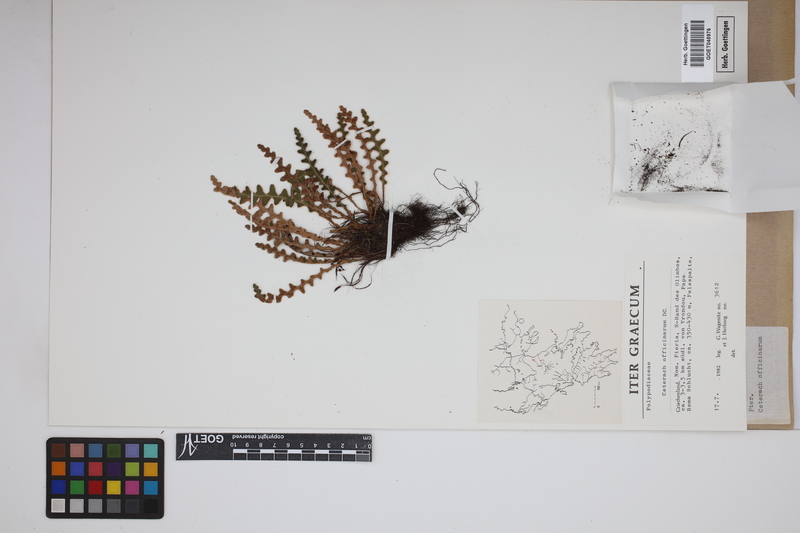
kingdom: Plantae
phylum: Tracheophyta
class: Polypodiopsida
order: Polypodiales
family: Aspleniaceae
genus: Asplenium
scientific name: Asplenium ceterach
